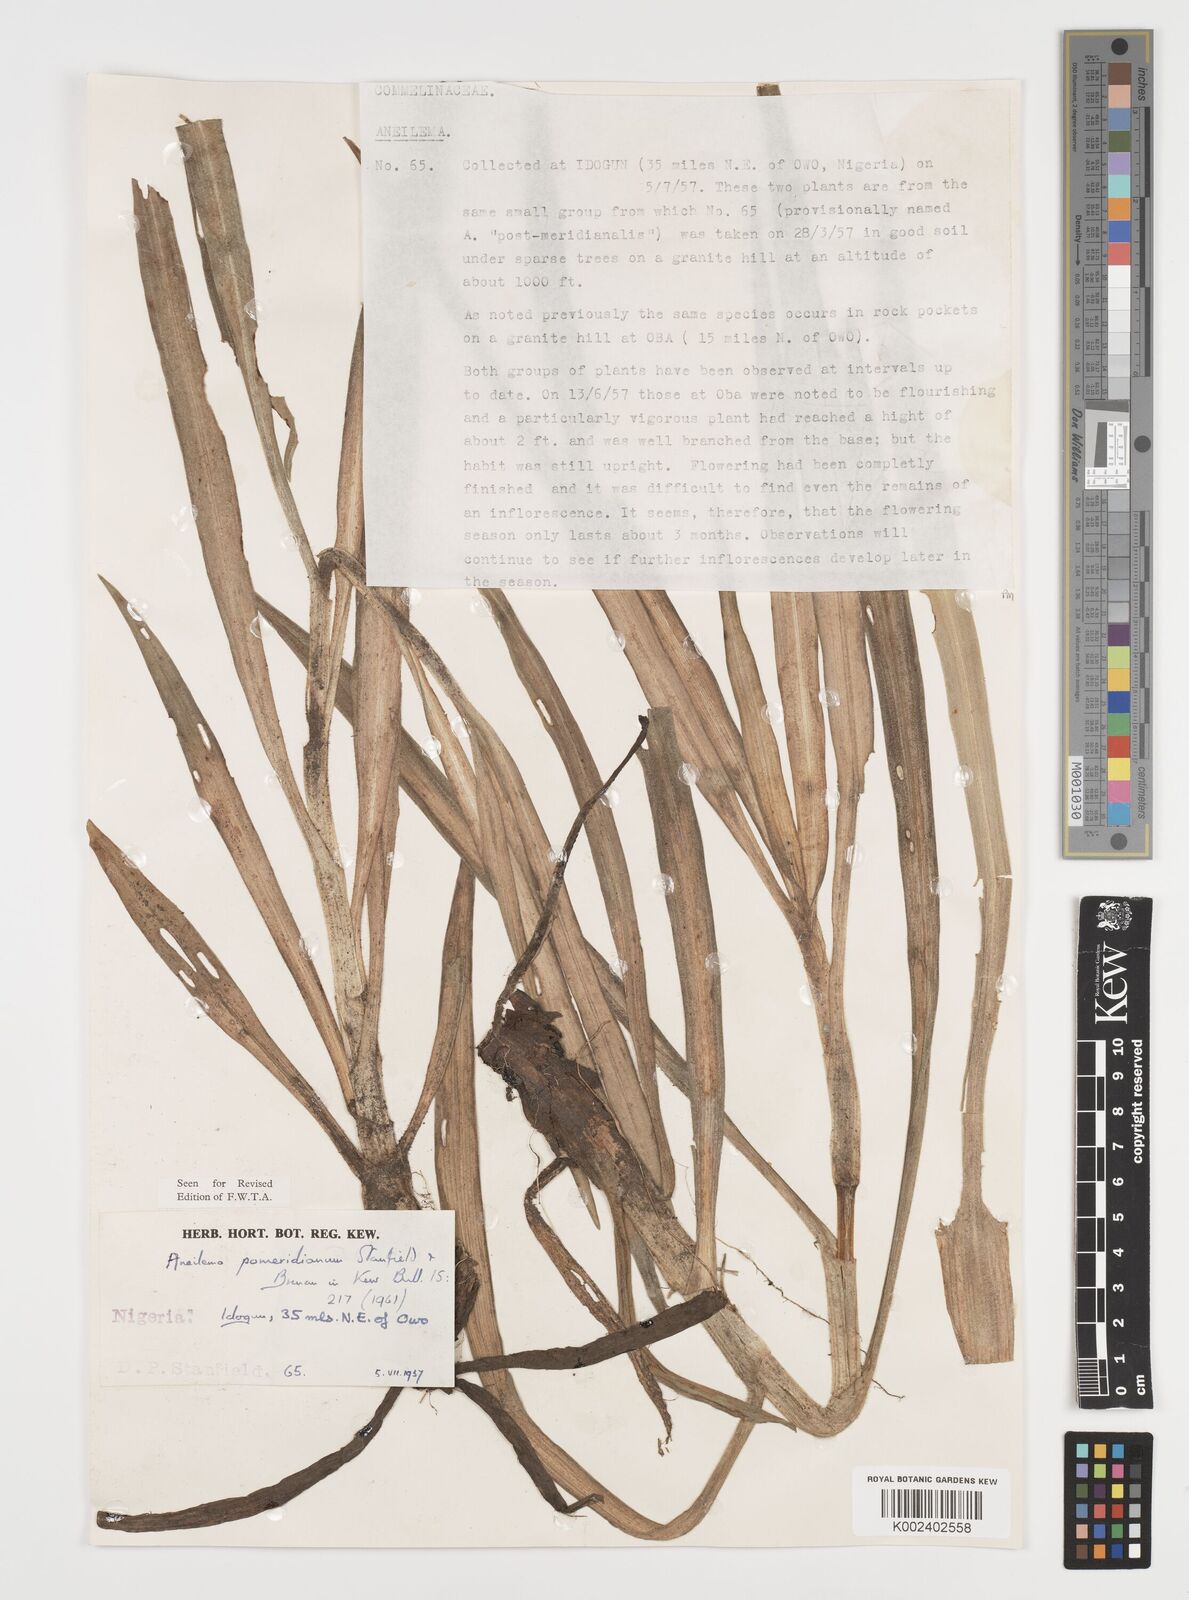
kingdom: Plantae
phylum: Tracheophyta
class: Liliopsida
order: Commelinales
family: Commelinaceae
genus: Aneilema
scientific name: Aneilema pomeridianum
